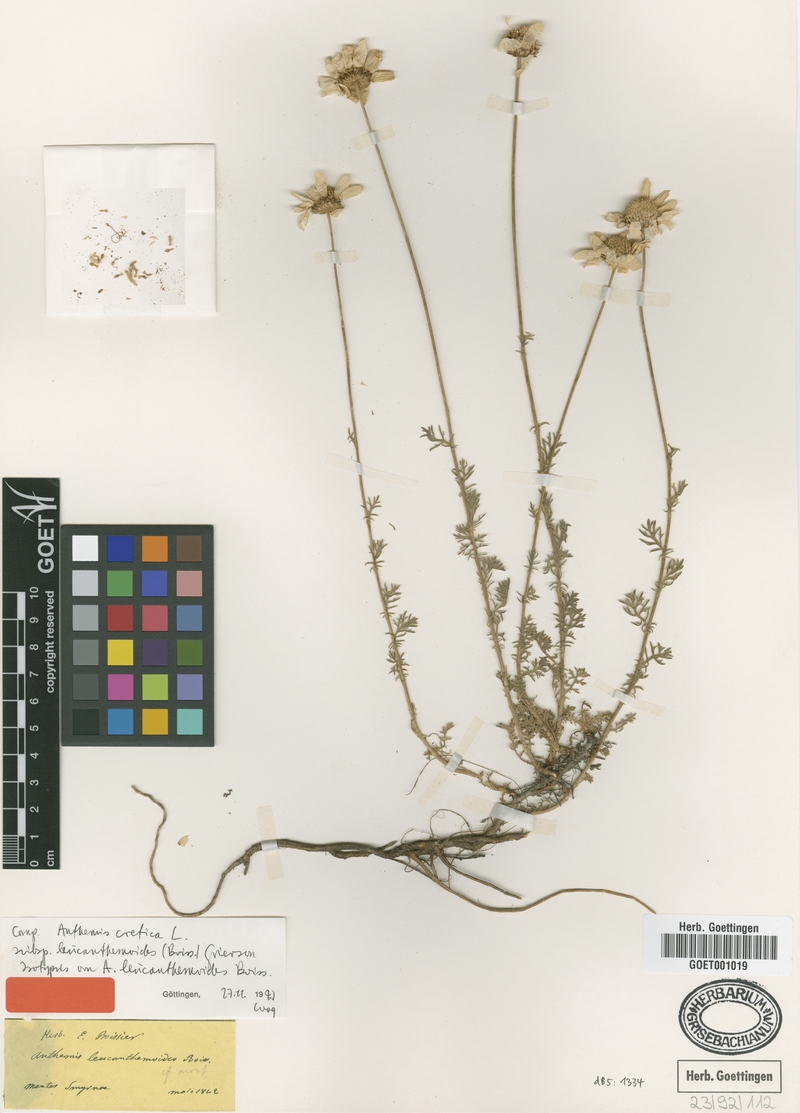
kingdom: Plantae
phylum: Tracheophyta
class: Magnoliopsida
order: Asterales
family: Asteraceae
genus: Anthemis
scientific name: Anthemis cretica
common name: Mountain dog-daisy
